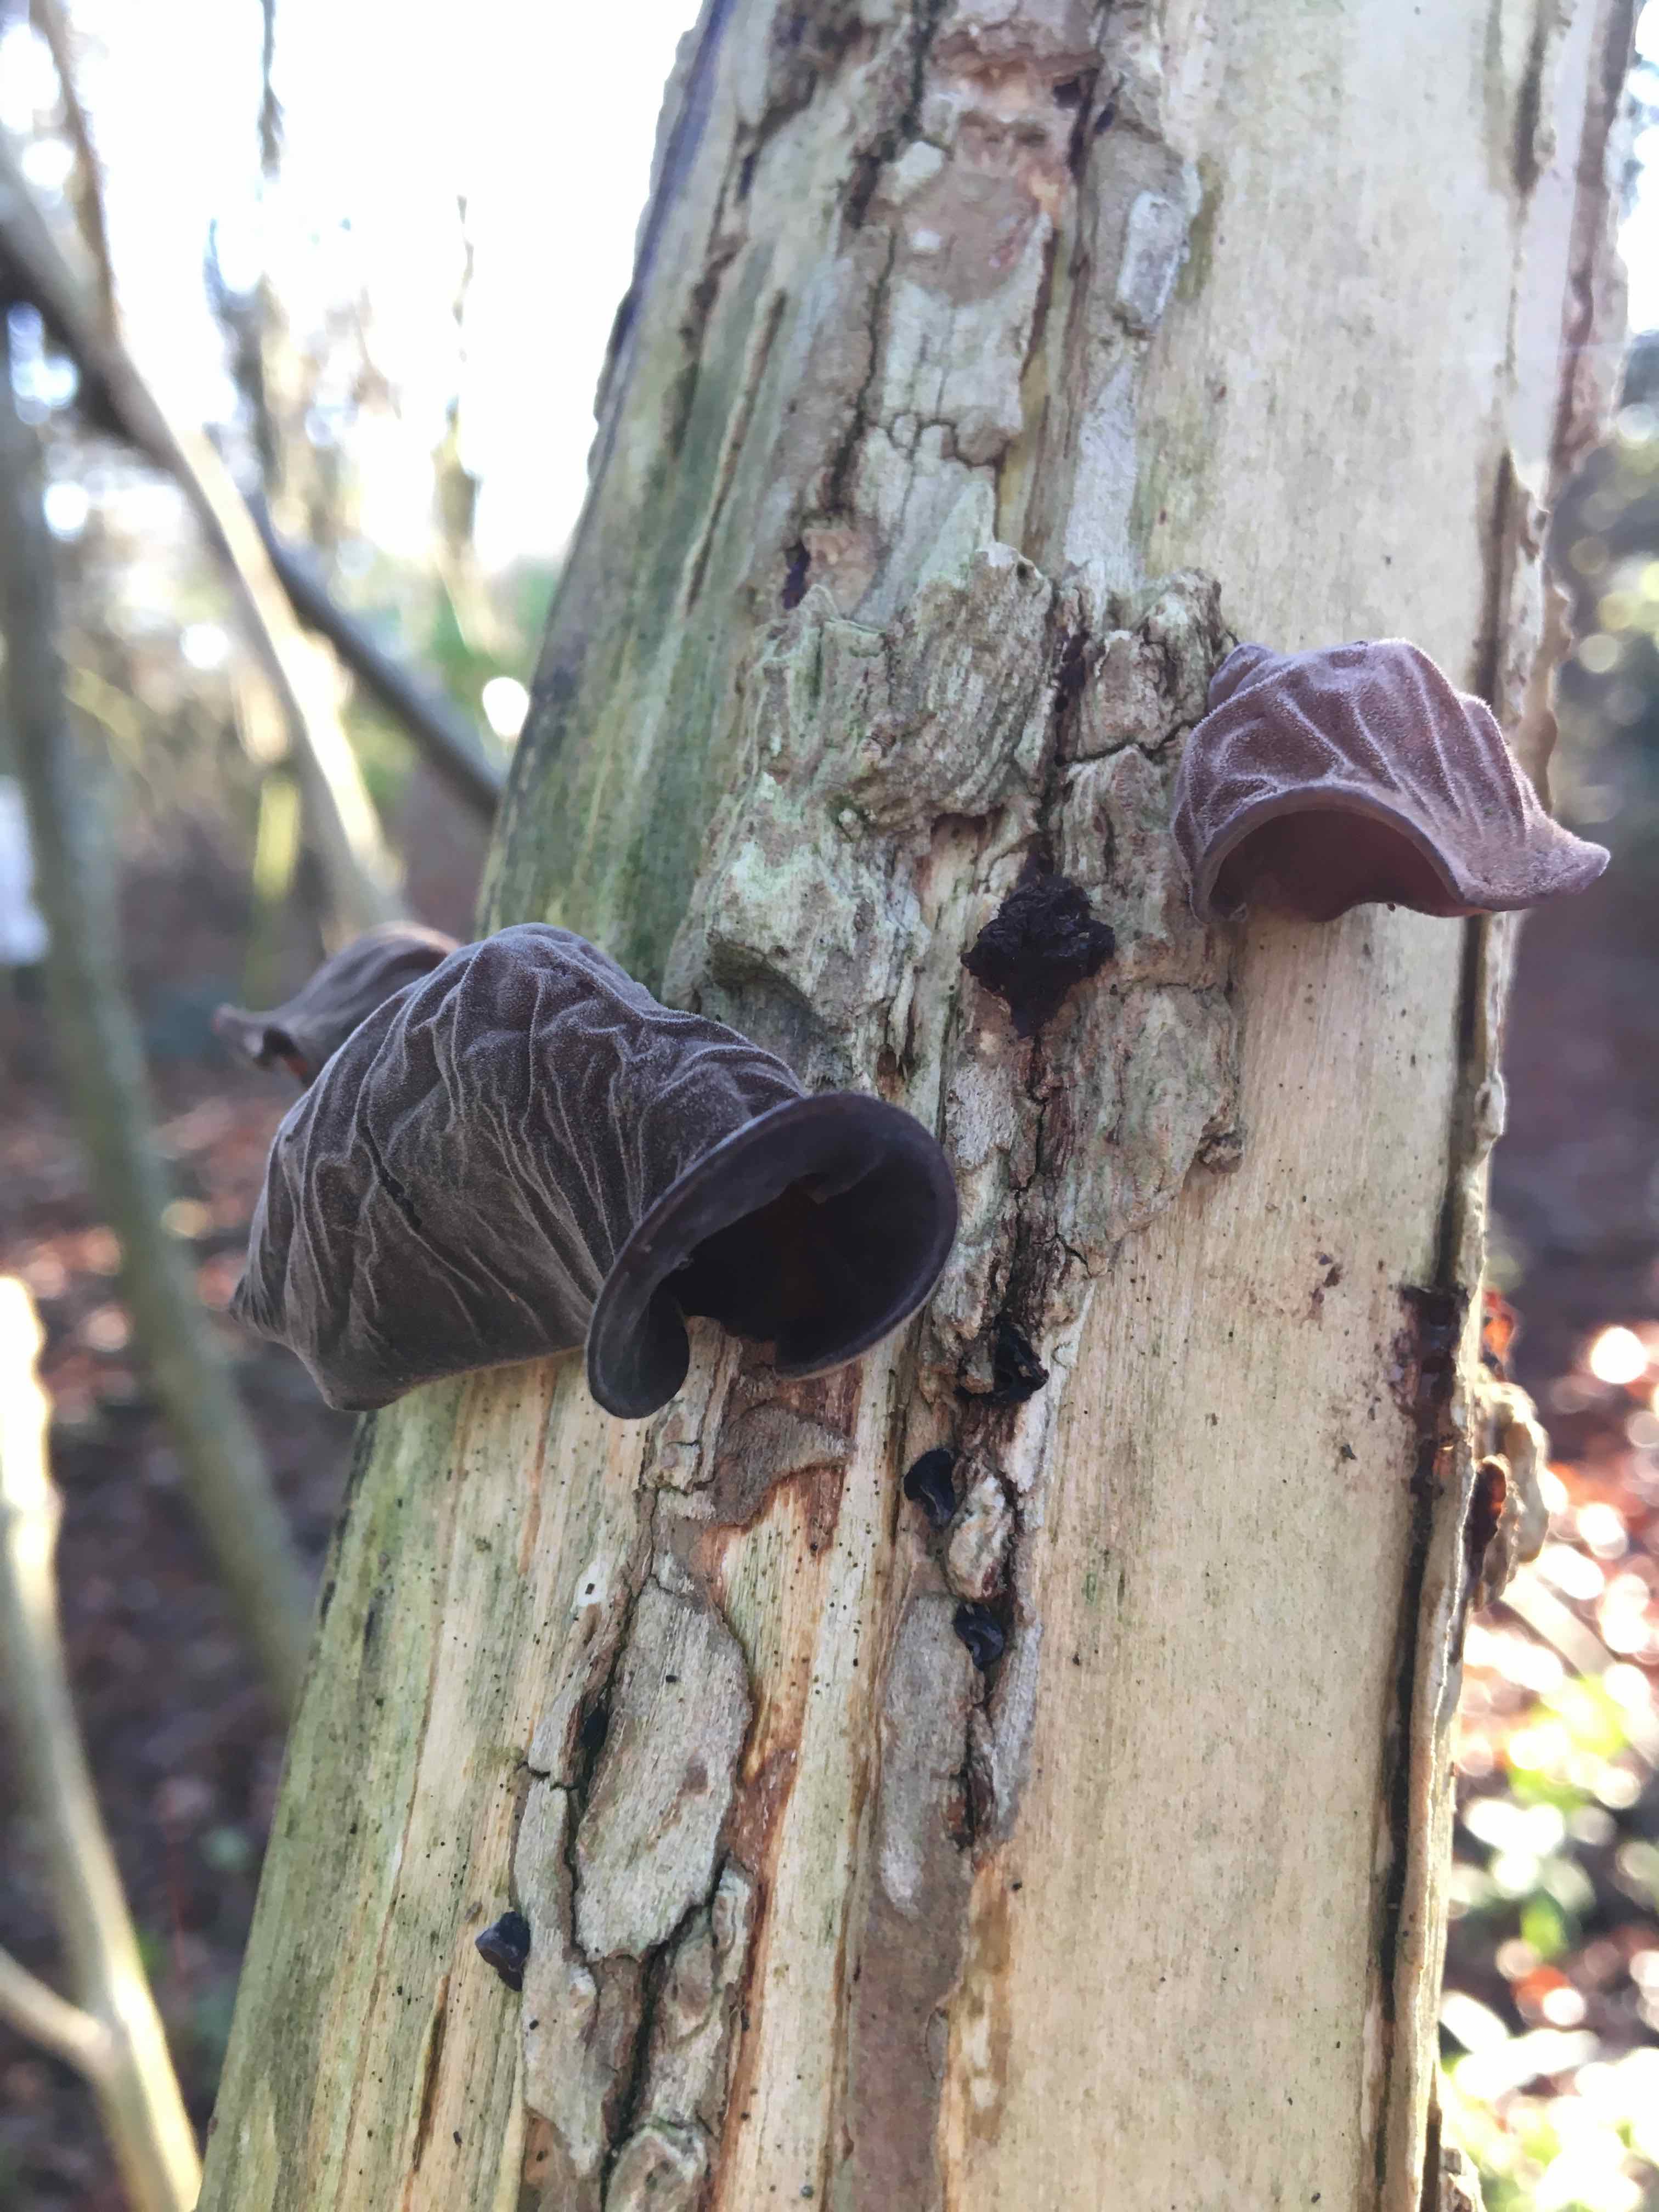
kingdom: Fungi
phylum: Basidiomycota
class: Agaricomycetes
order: Auriculariales
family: Auriculariaceae
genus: Auricularia
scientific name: Auricularia auricula-judae
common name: almindelig judasøre
